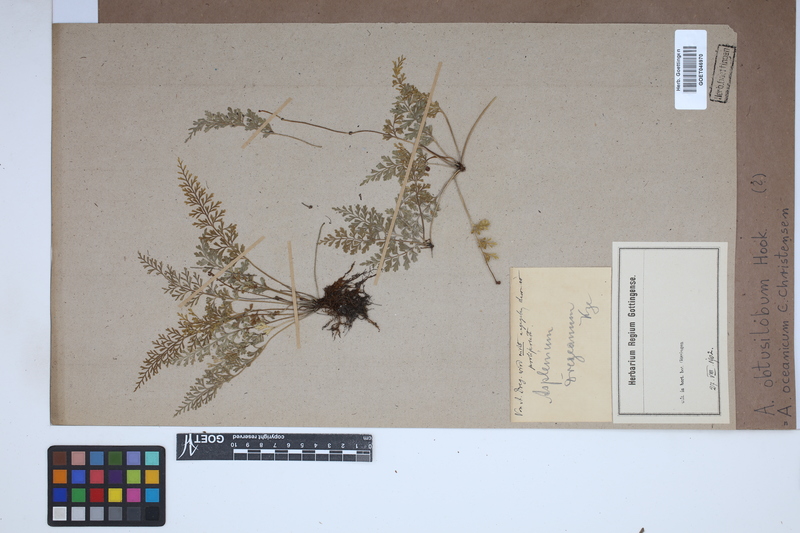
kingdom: Plantae
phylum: Tracheophyta
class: Polypodiopsida
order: Polypodiales
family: Aspleniaceae
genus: Asplenium
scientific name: Asplenium bipinnatifidum
